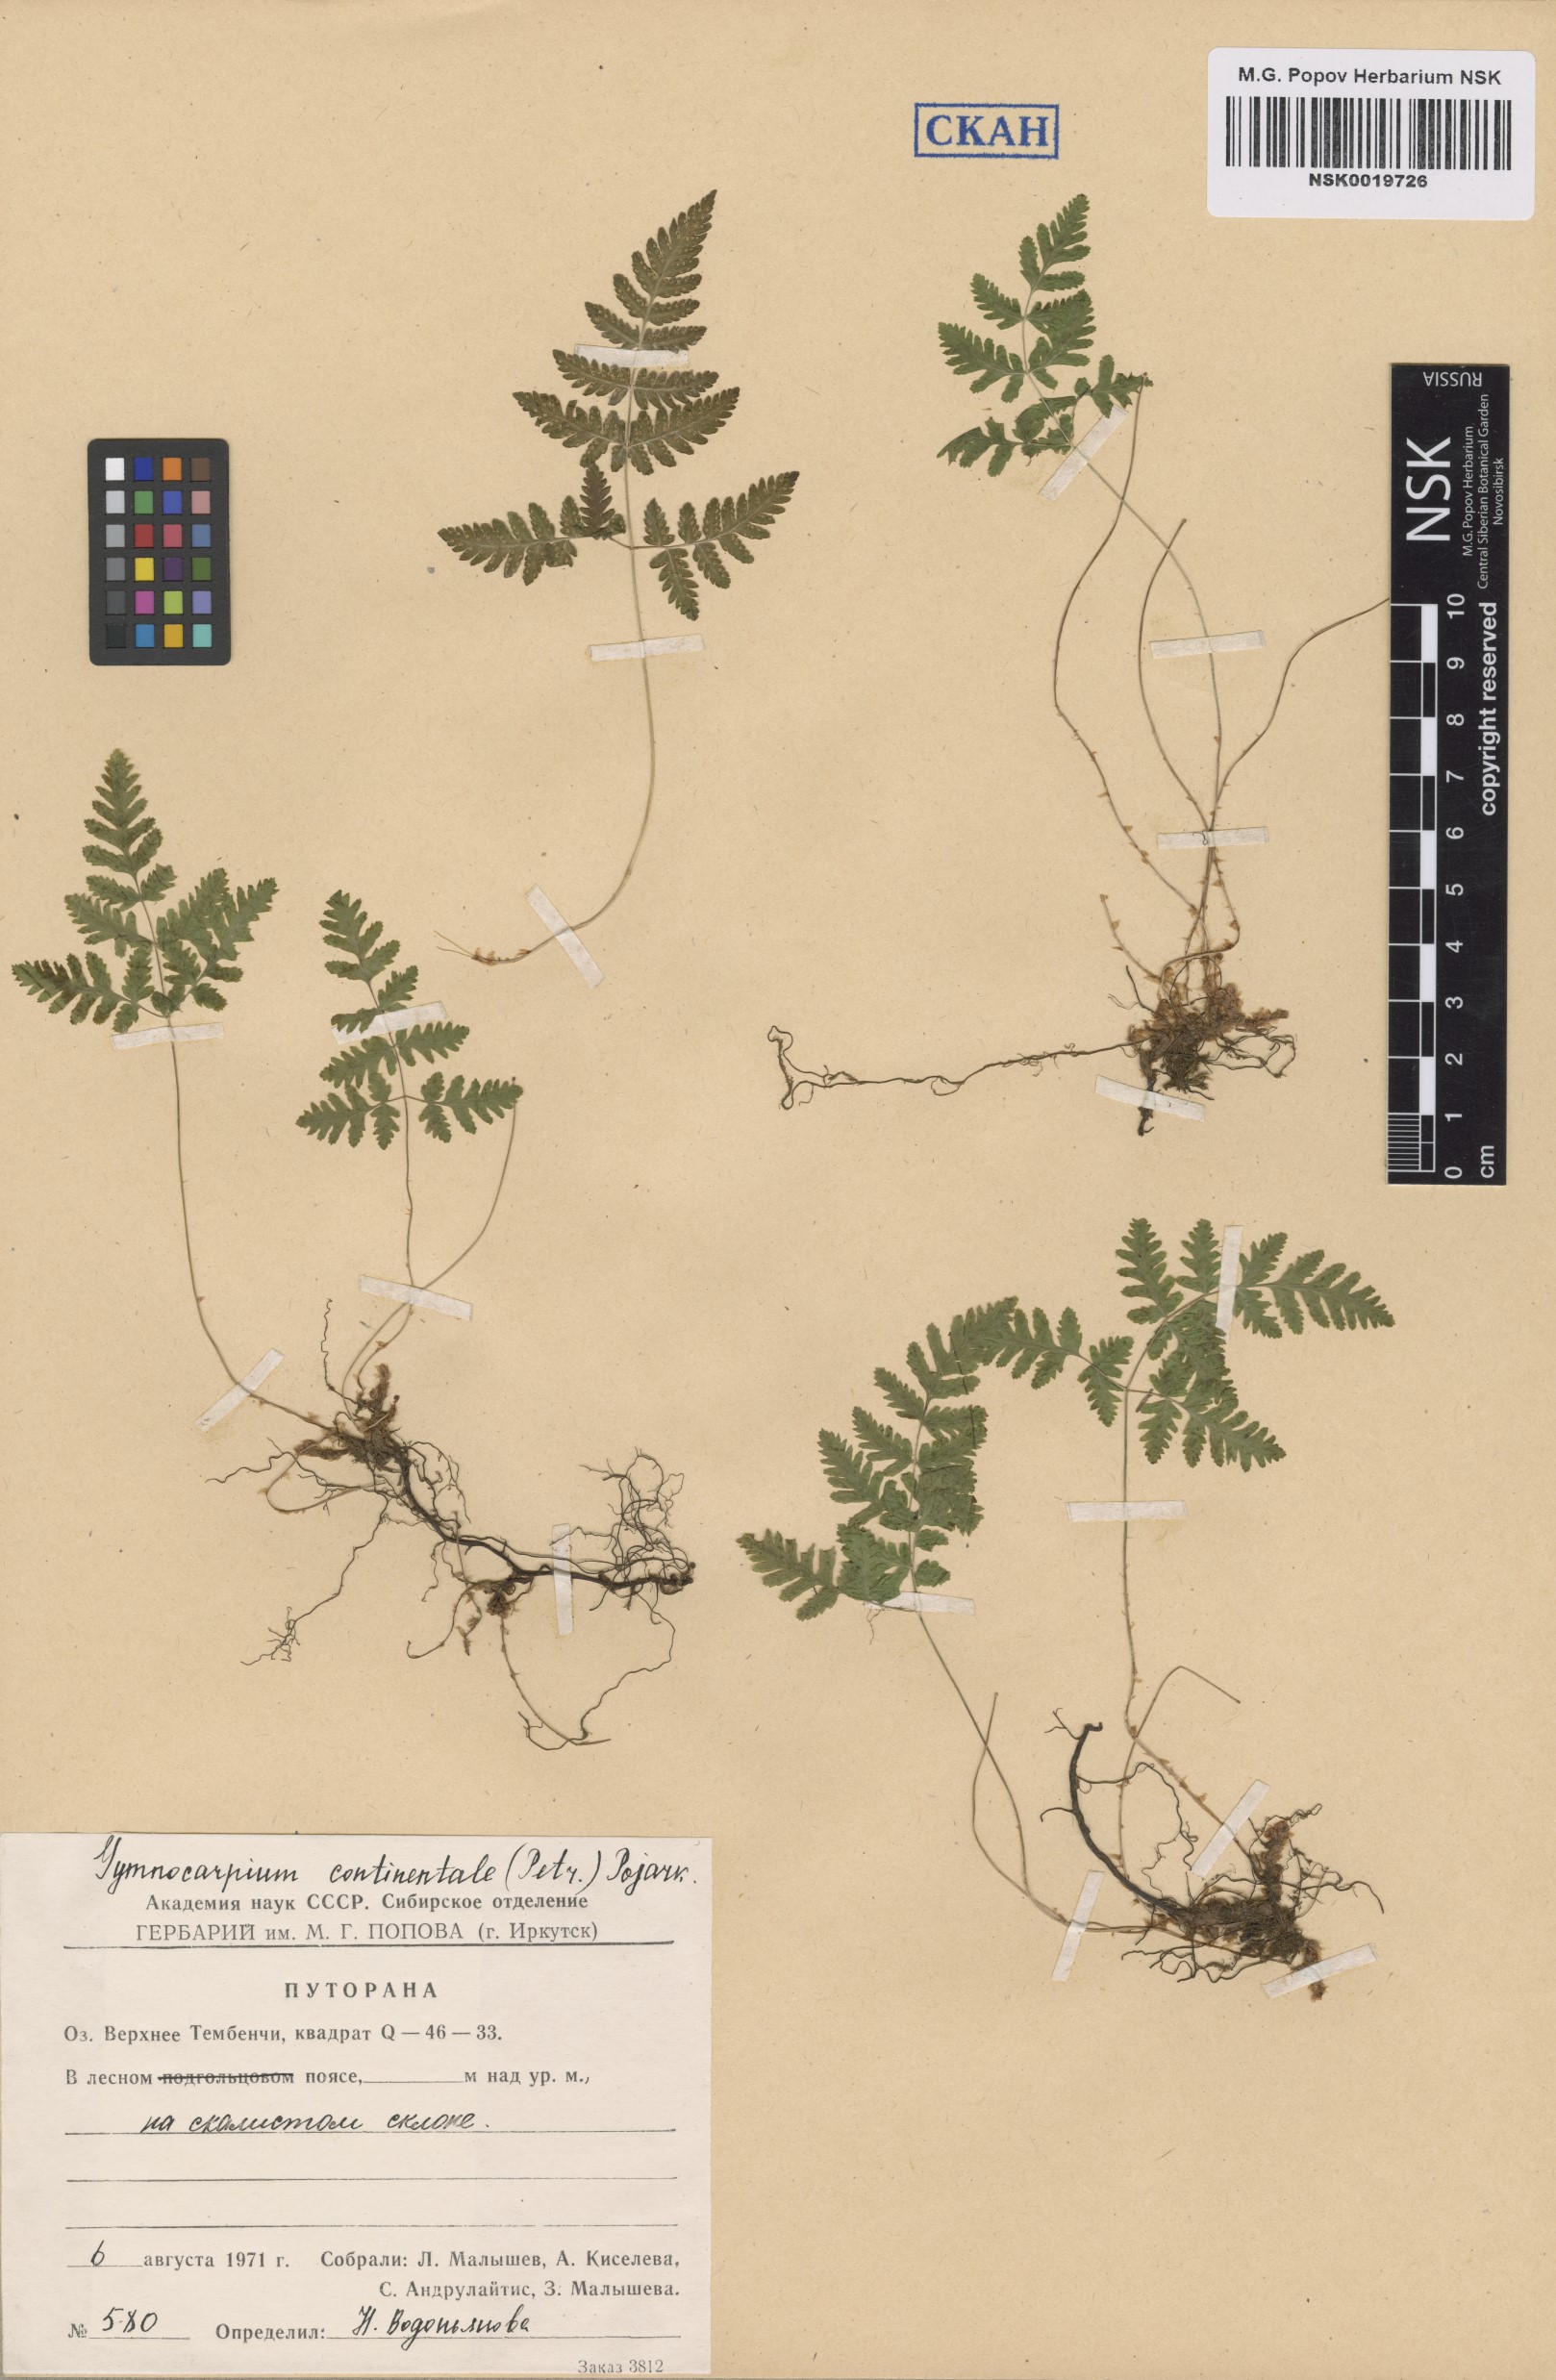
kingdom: Plantae
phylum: Tracheophyta
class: Polypodiopsida
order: Polypodiales
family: Cystopteridaceae
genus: Gymnocarpium
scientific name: Gymnocarpium continentale
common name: Asian oak fern
